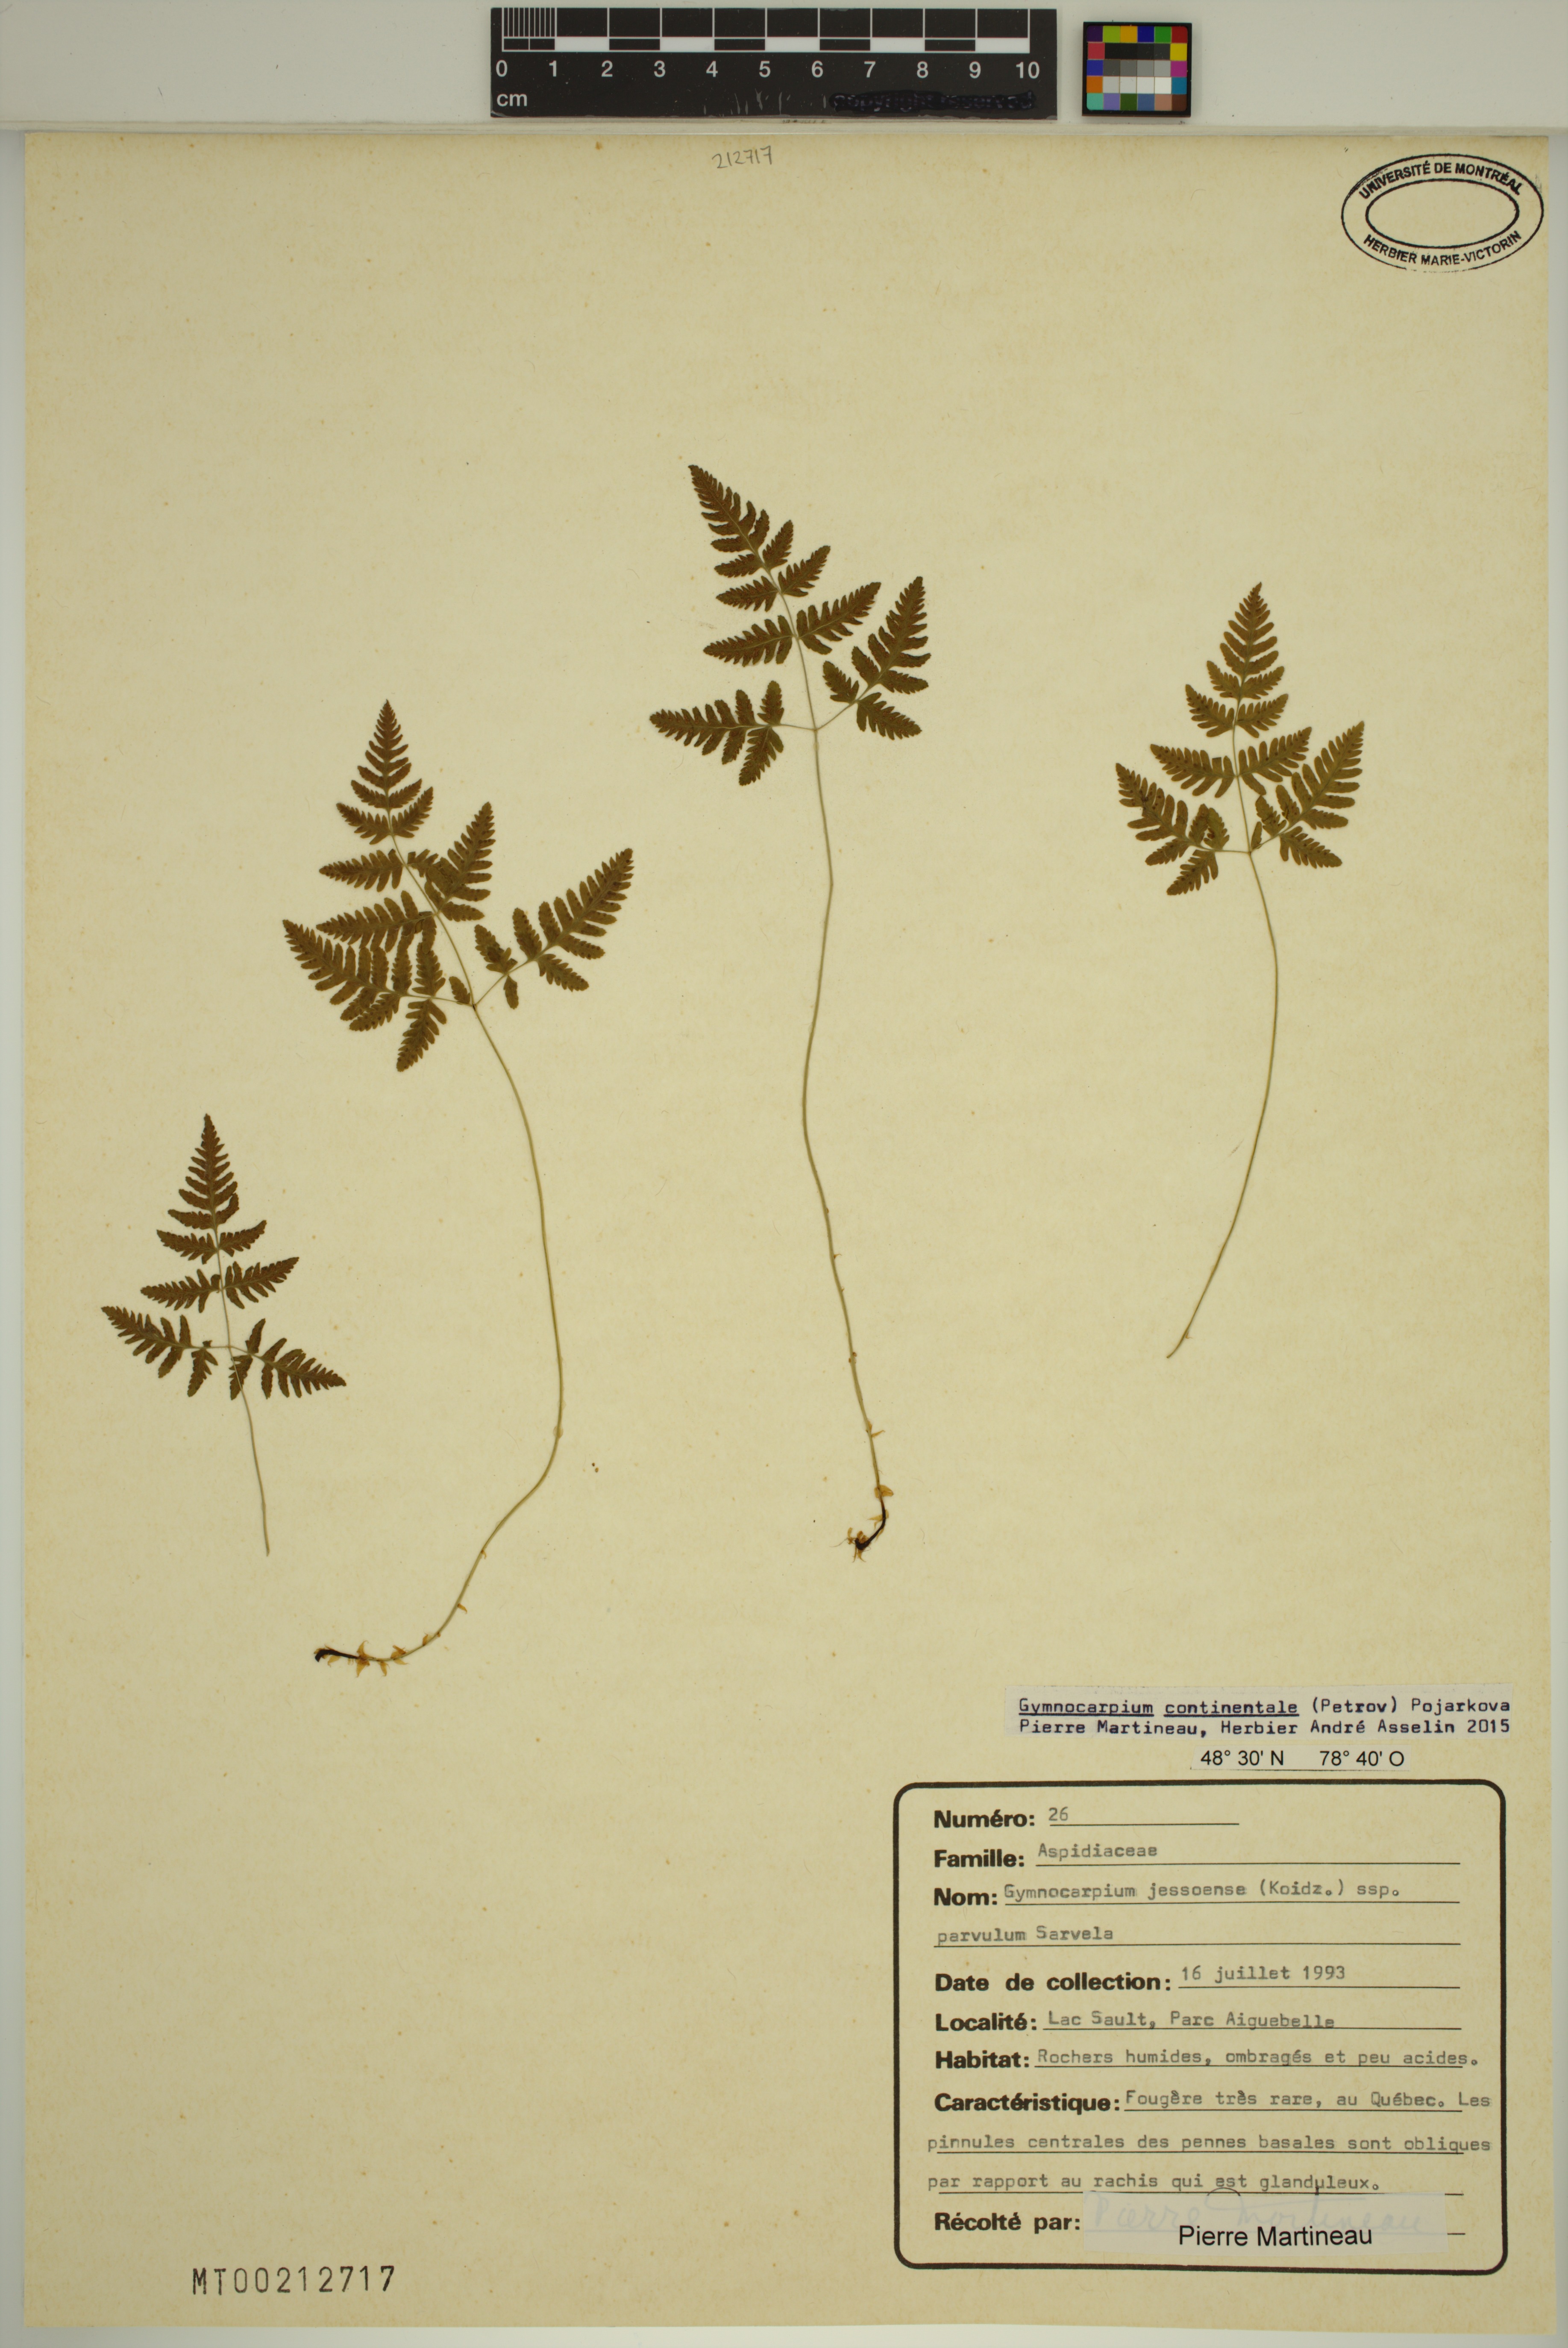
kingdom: Plantae
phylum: Tracheophyta
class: Polypodiopsida
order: Polypodiales
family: Cystopteridaceae
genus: Gymnocarpium
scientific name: Gymnocarpium continentale
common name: Asian oak fern
